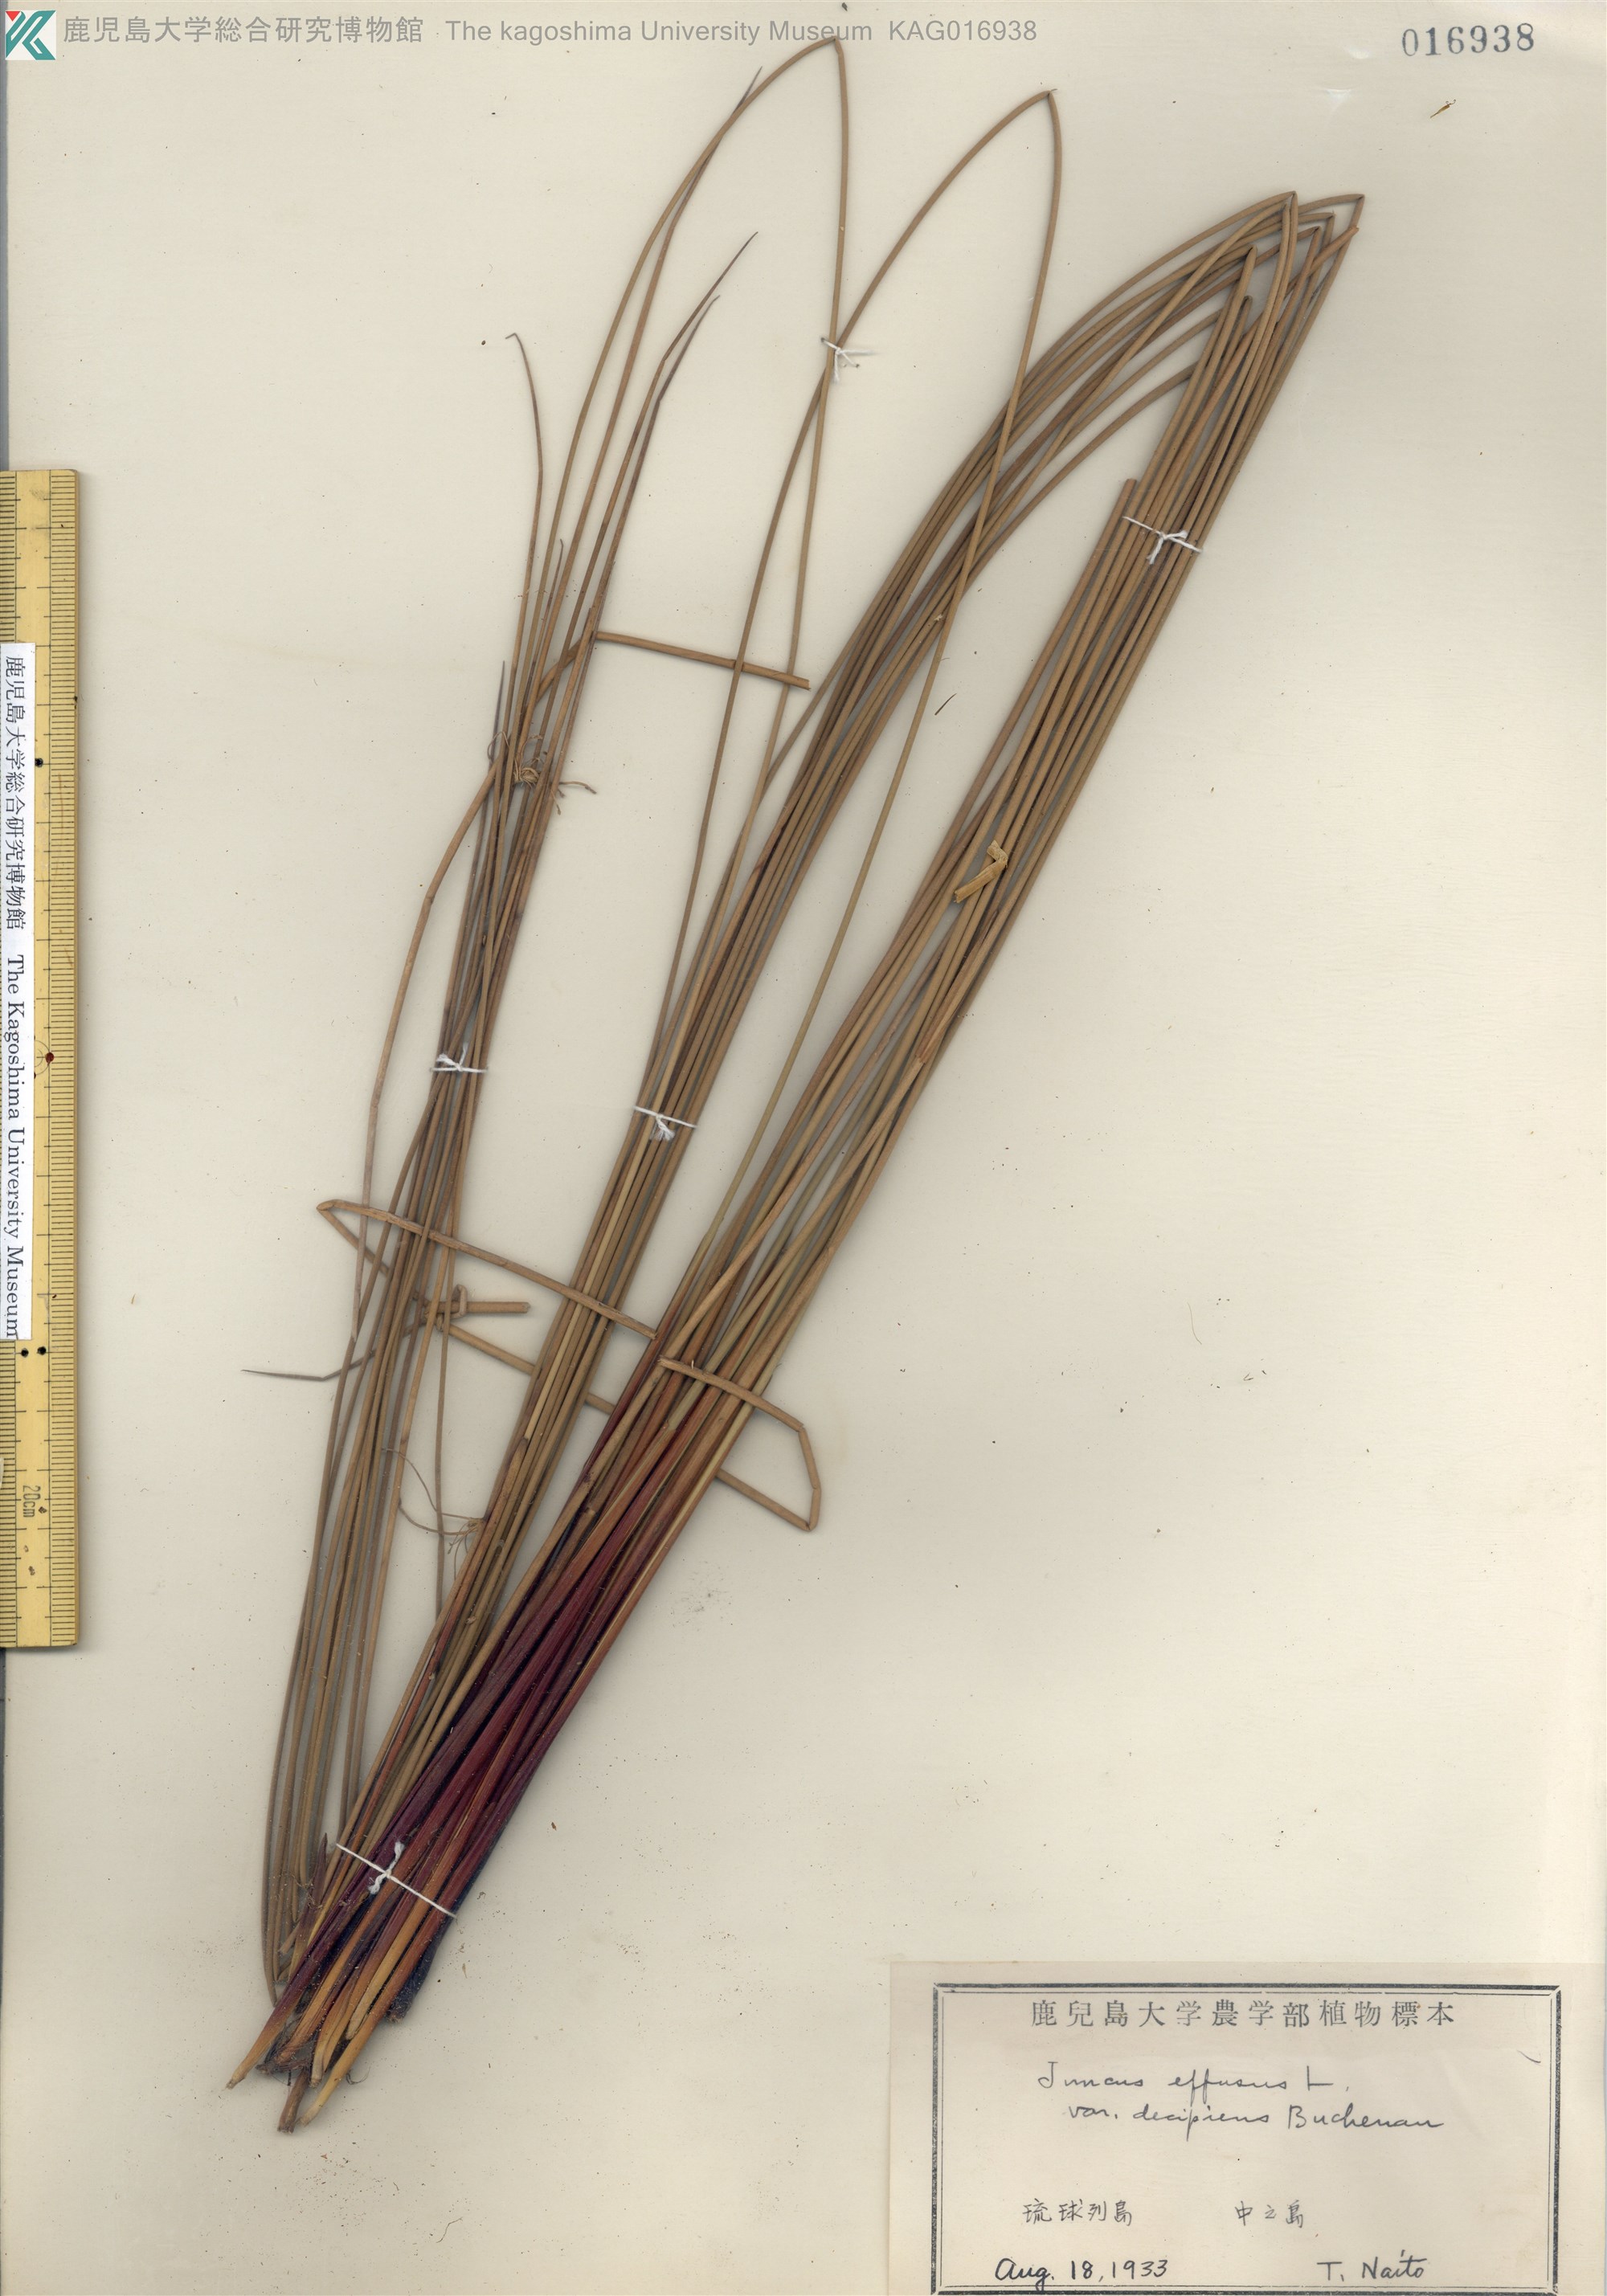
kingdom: Plantae
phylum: Tracheophyta
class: Liliopsida
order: Poales
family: Juncaceae
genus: Juncus
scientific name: Juncus decipiens
